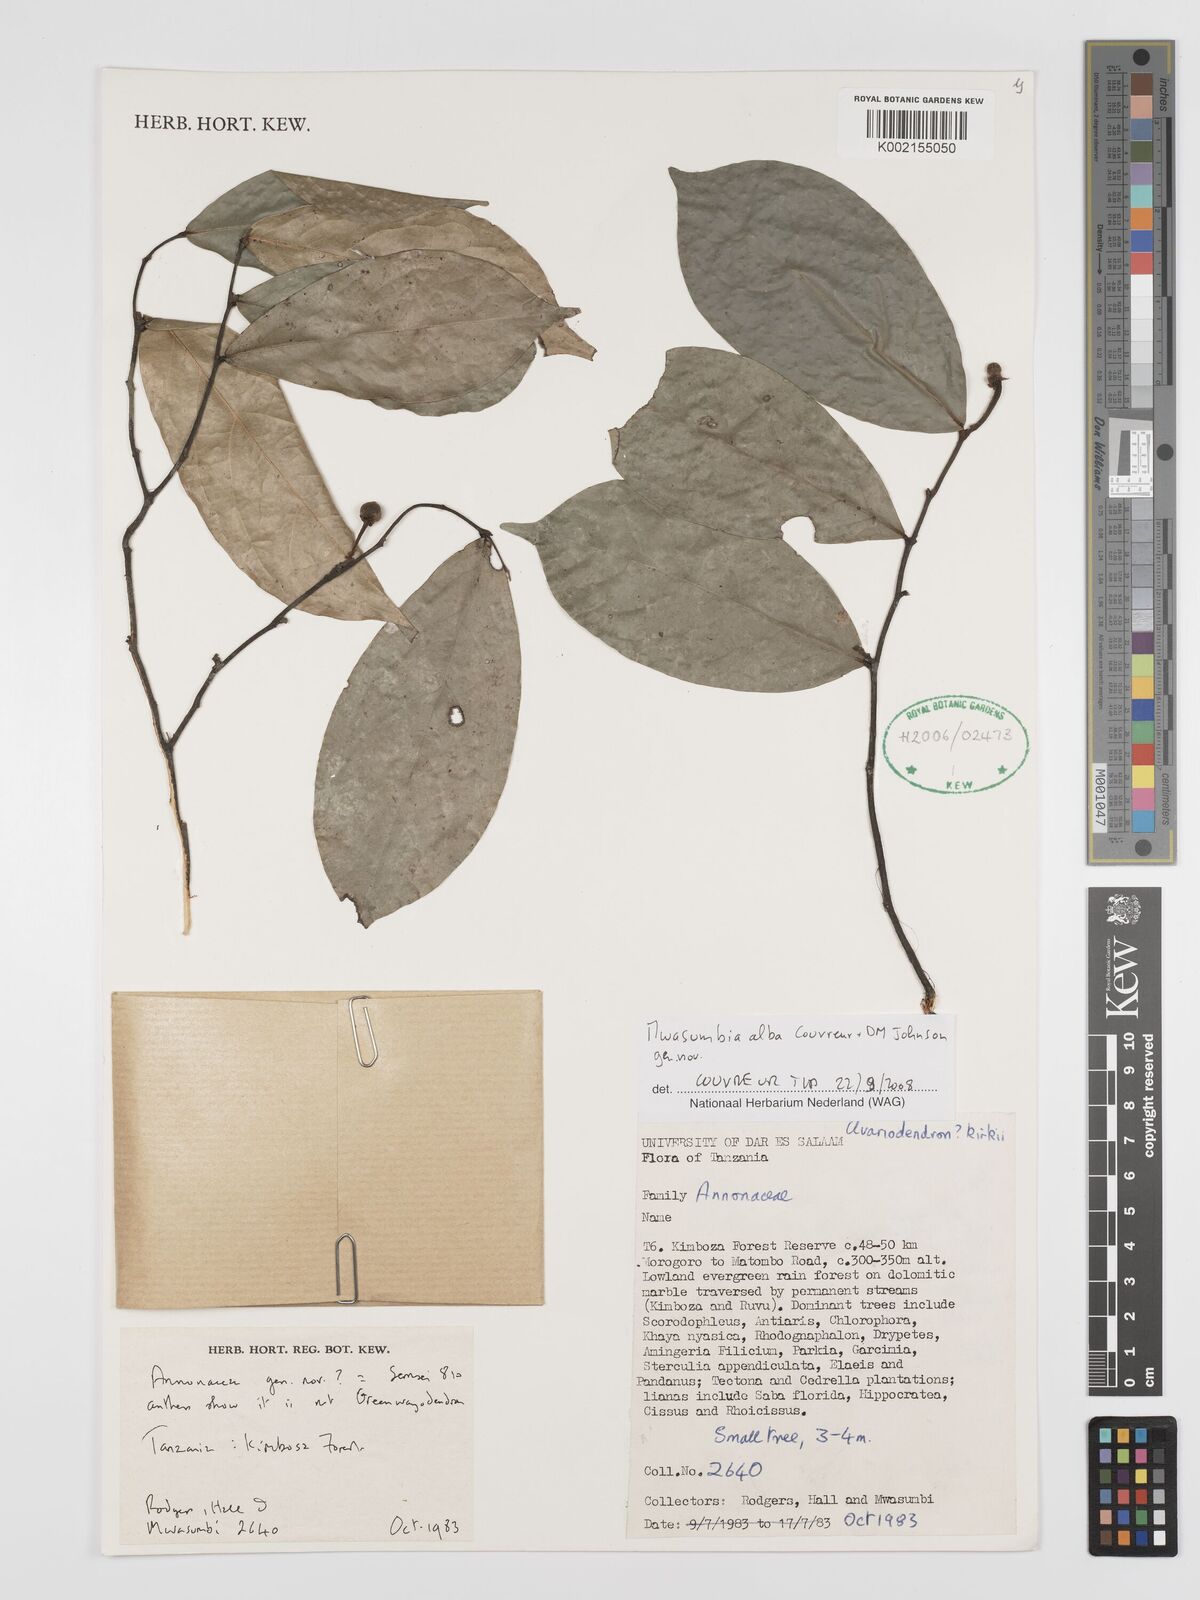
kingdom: Plantae
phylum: Tracheophyta
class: Magnoliopsida
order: Magnoliales
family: Annonaceae
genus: Mwasumbia
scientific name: Mwasumbia alba
